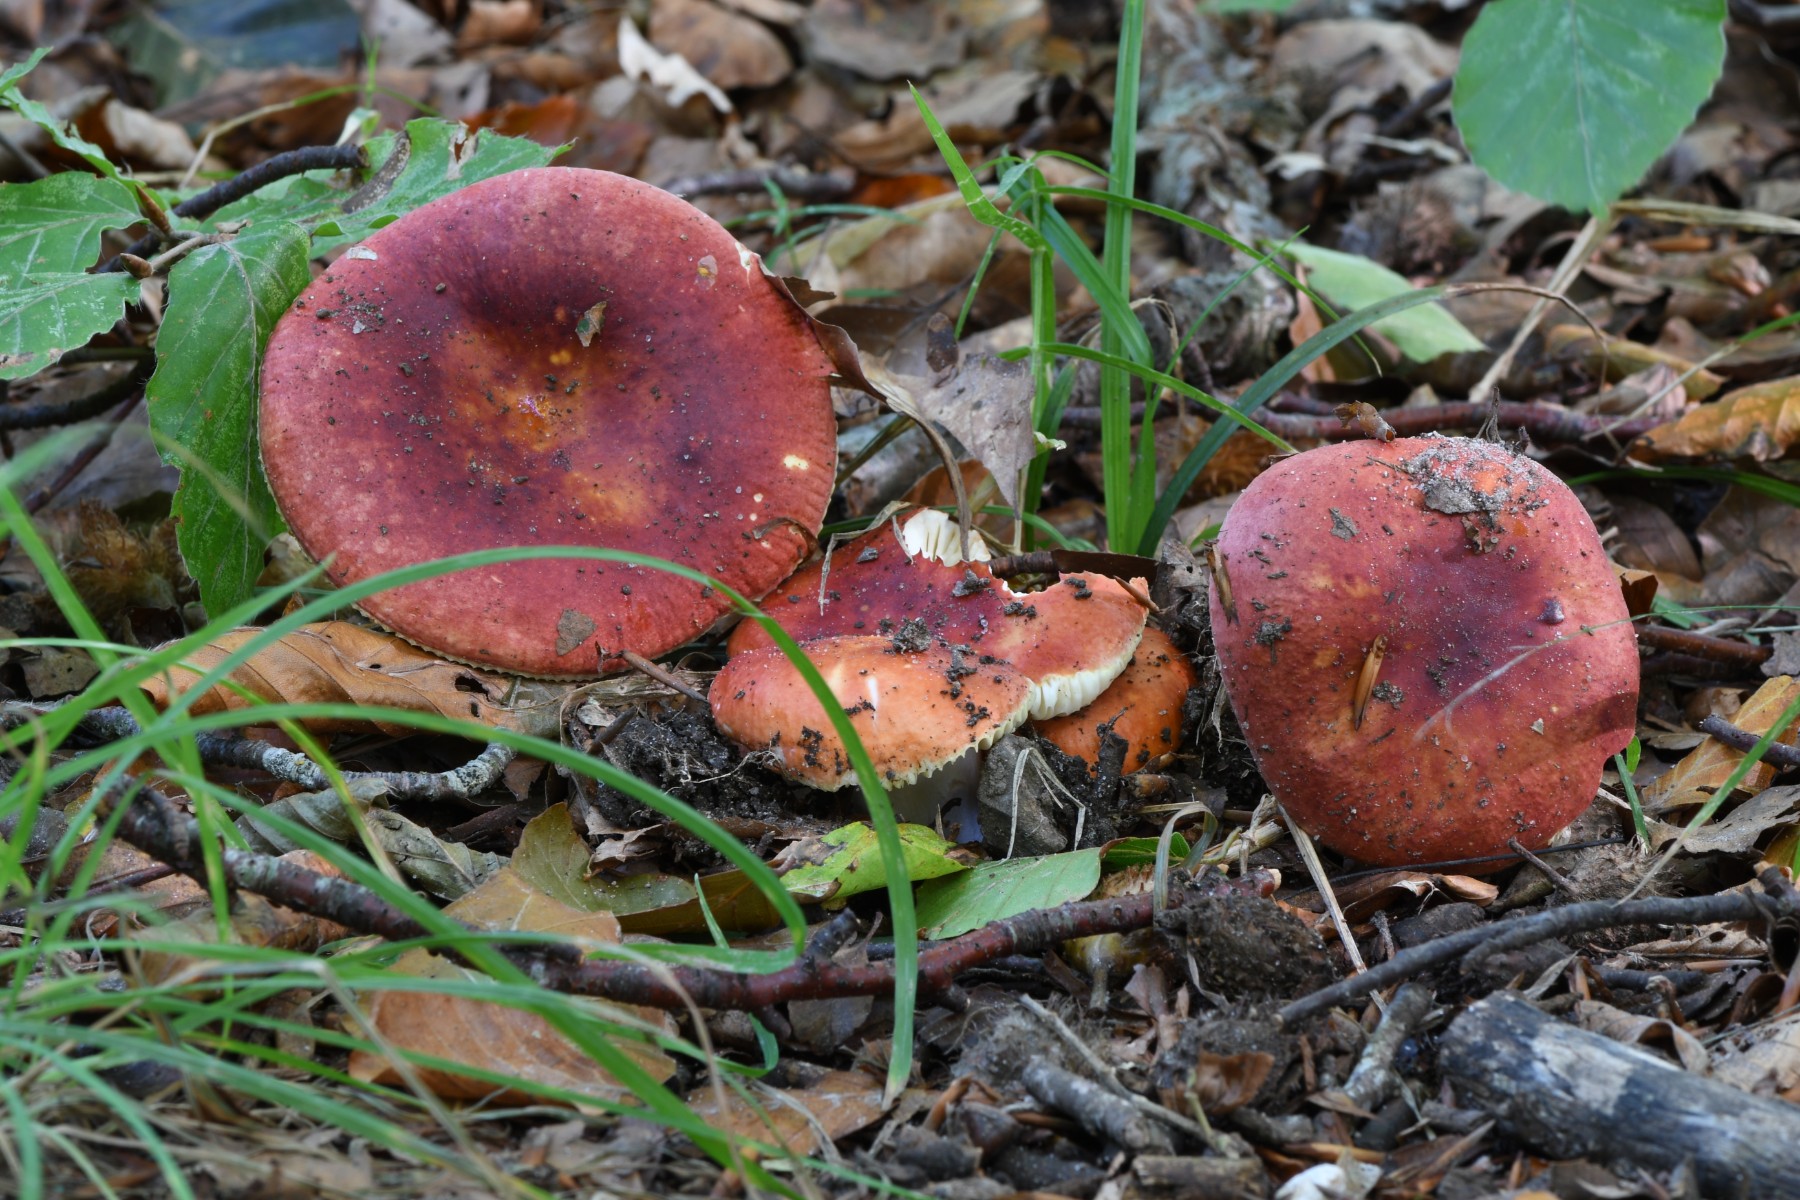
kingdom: Fungi
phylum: Basidiomycota
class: Agaricomycetes
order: Russulales
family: Russulaceae
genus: Russula
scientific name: Russula aurea
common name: gylden skørhat
